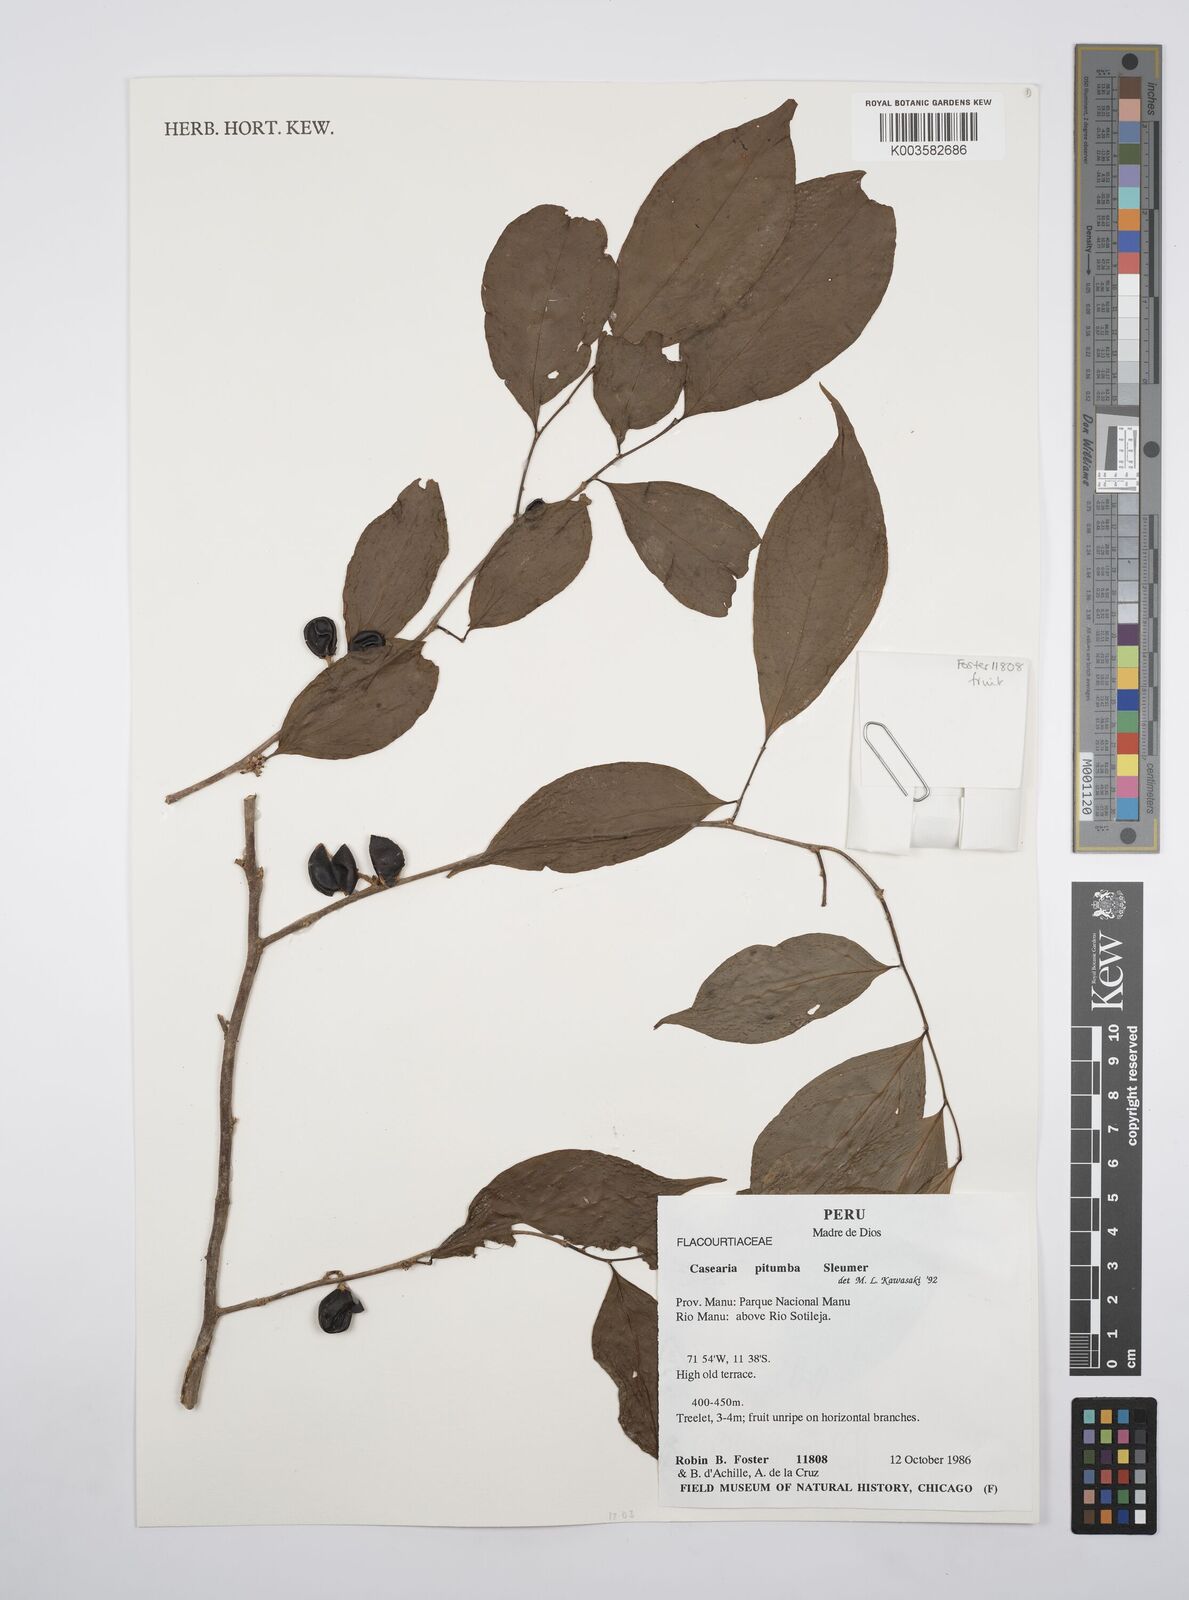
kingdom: Plantae
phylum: Tracheophyta
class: Magnoliopsida
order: Malpighiales
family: Salicaceae
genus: Casearia
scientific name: Casearia pitumba
